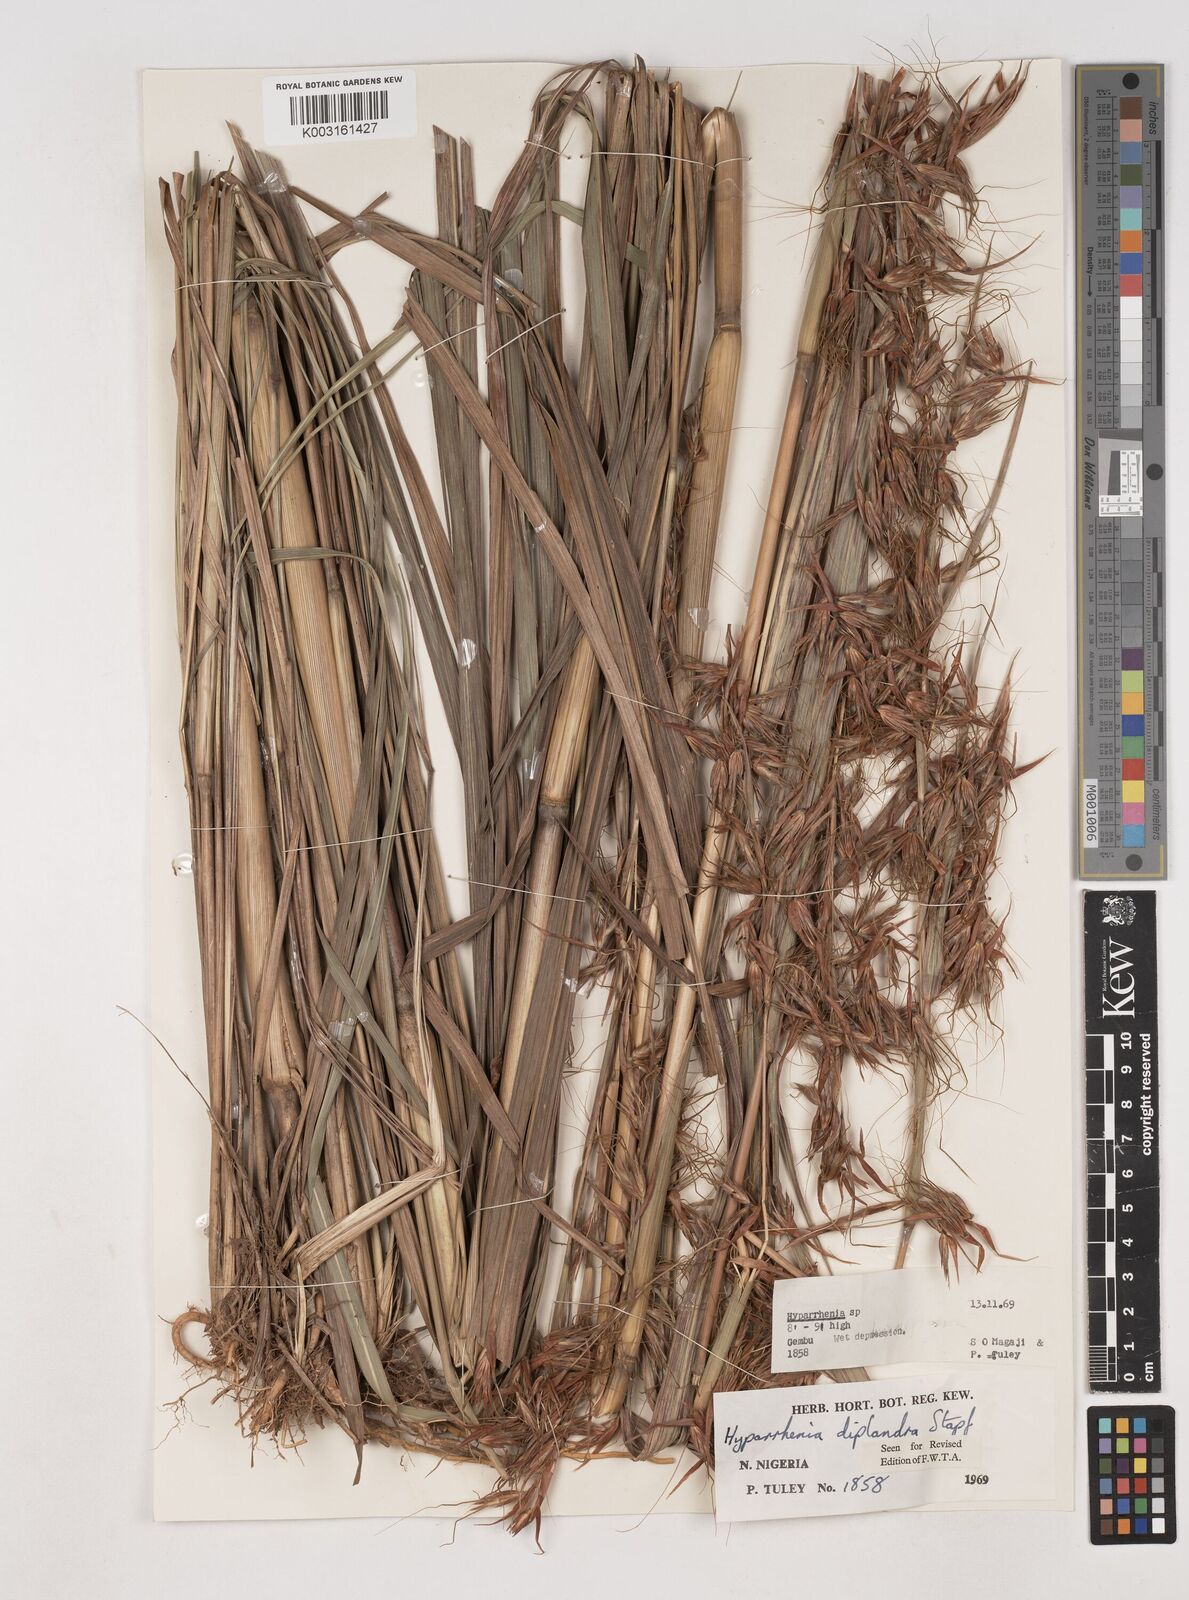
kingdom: Plantae
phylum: Tracheophyta
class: Liliopsida
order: Poales
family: Poaceae
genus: Hyparrhenia
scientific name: Hyparrhenia diplandra
